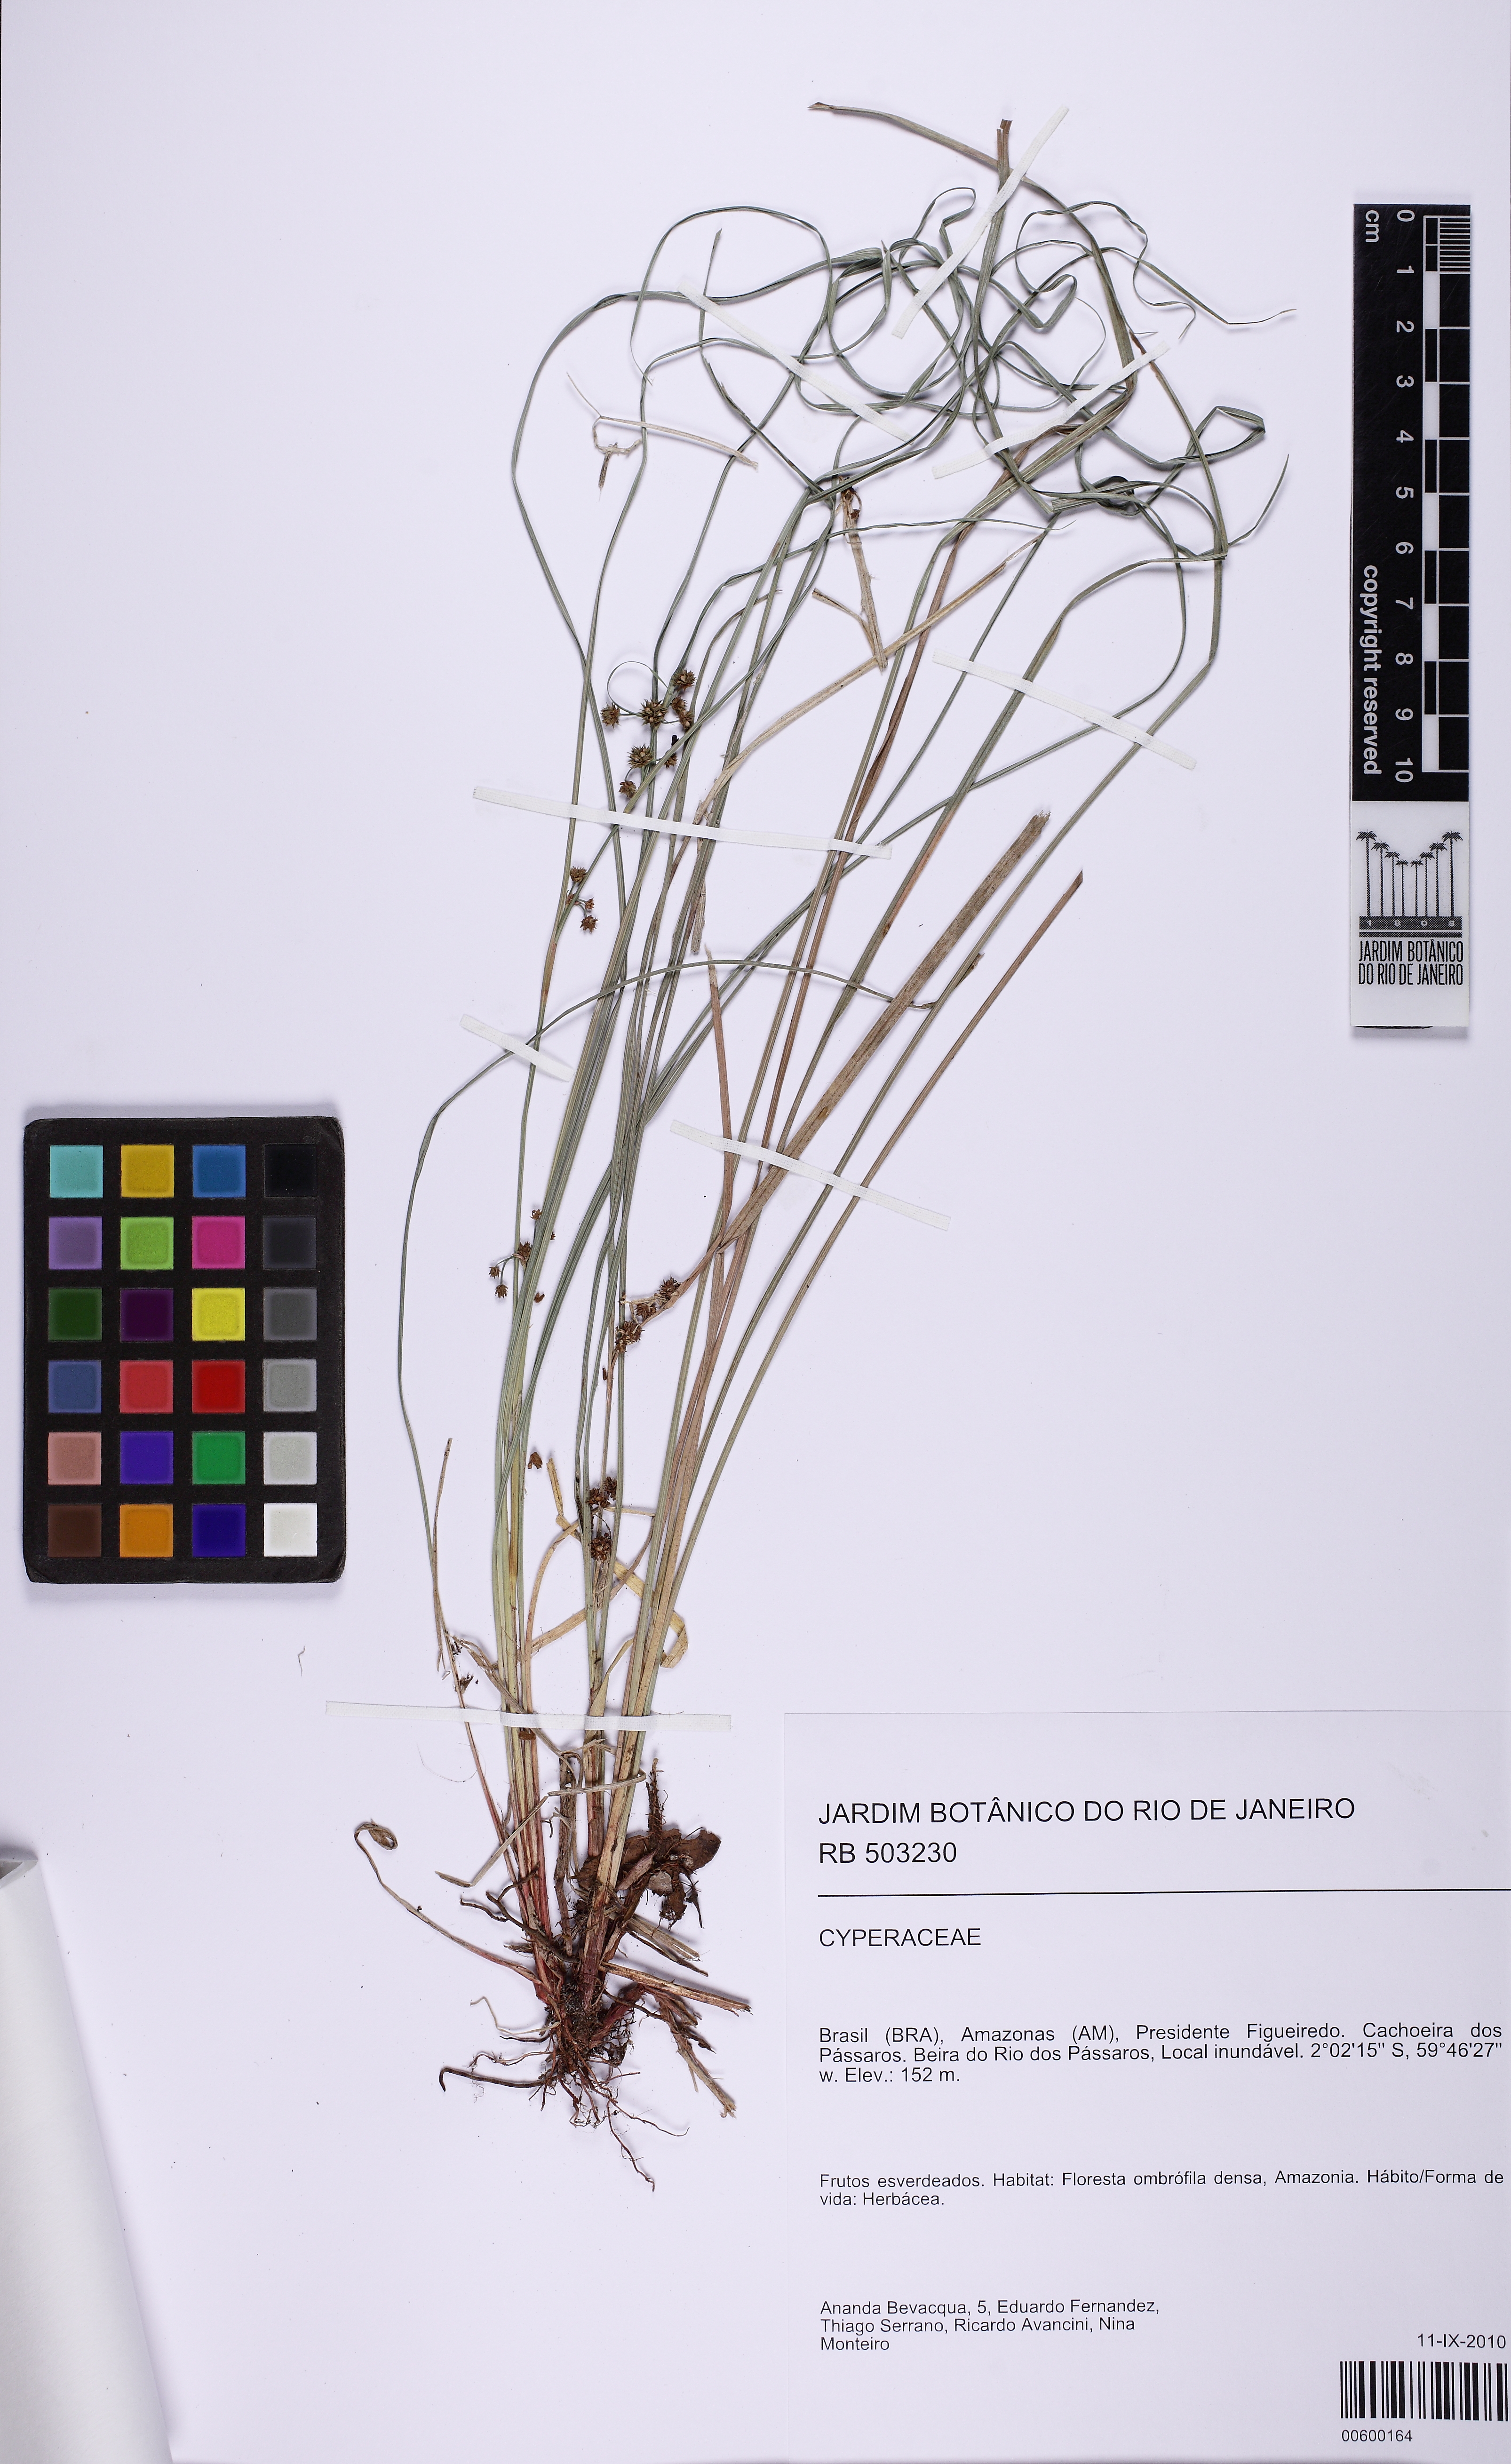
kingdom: Plantae
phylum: Tracheophyta
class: Liliopsida
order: Poales
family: Cyperaceae
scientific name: Cyperaceae
